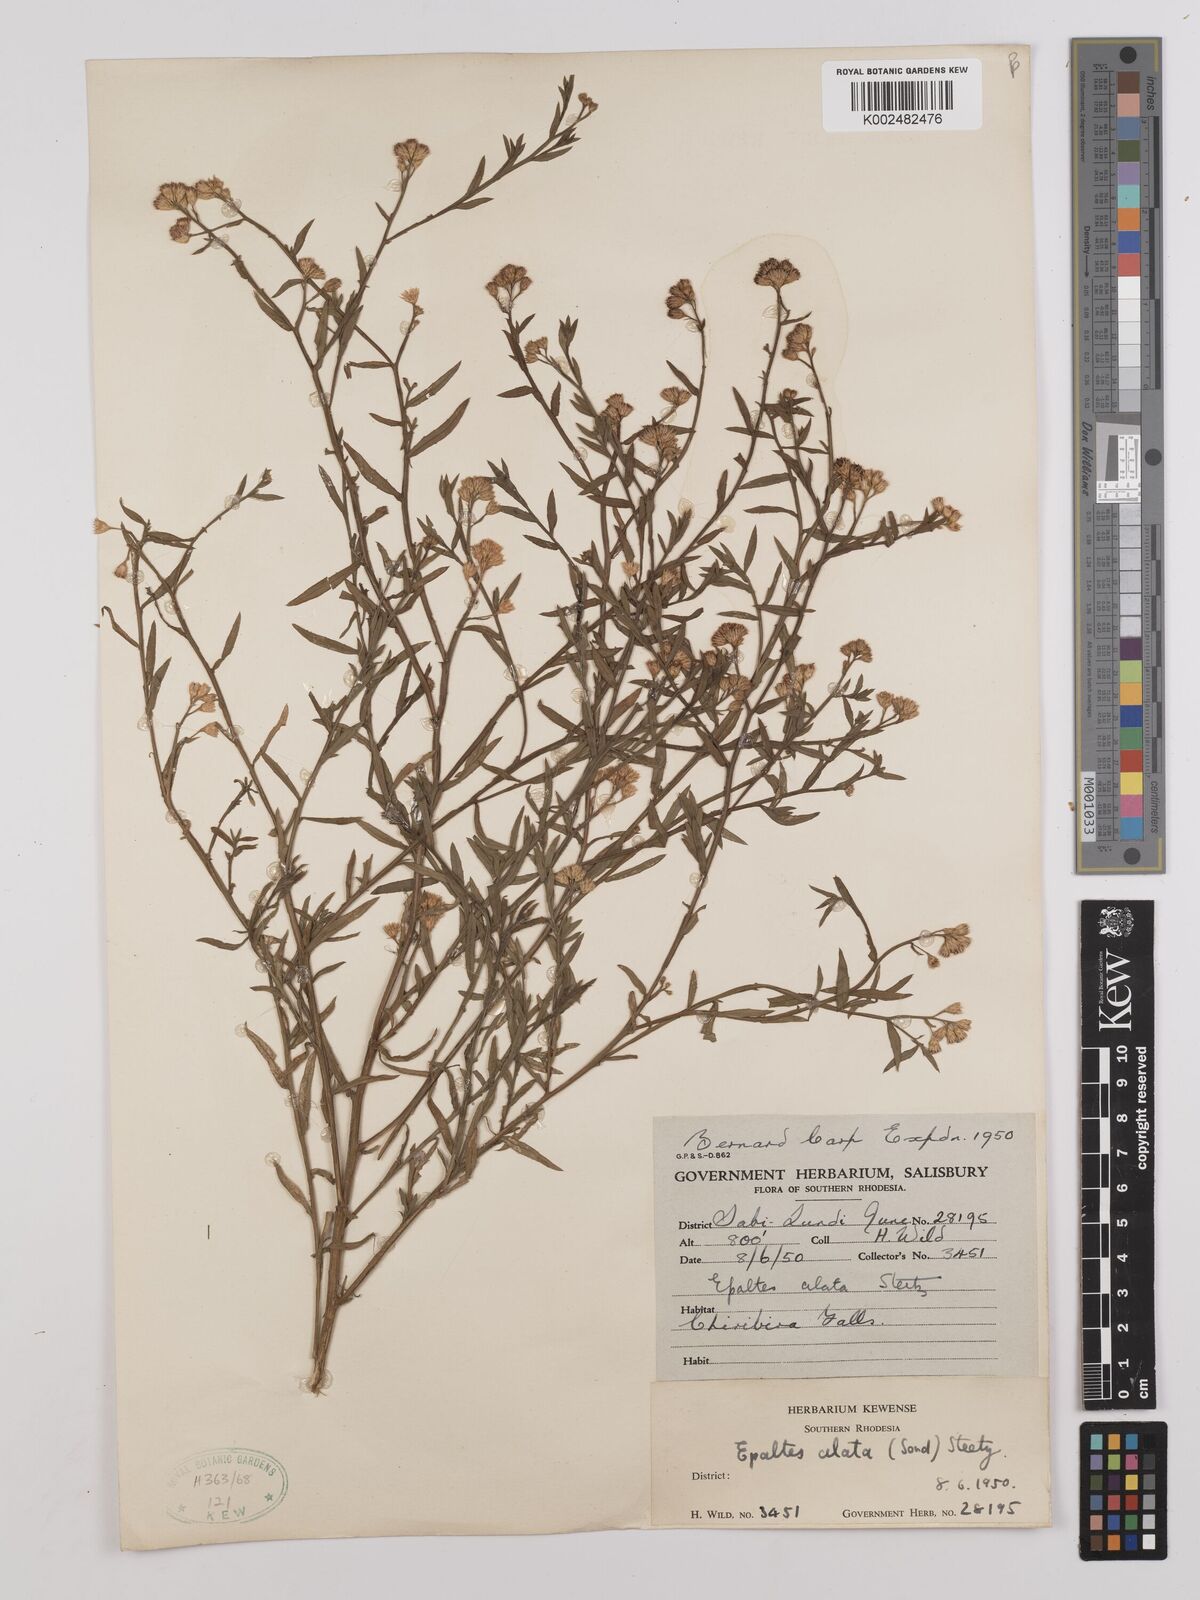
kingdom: Plantae
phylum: Tracheophyta
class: Magnoliopsida
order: Asterales
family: Asteraceae
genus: Litogyne
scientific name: Litogyne gariepina
